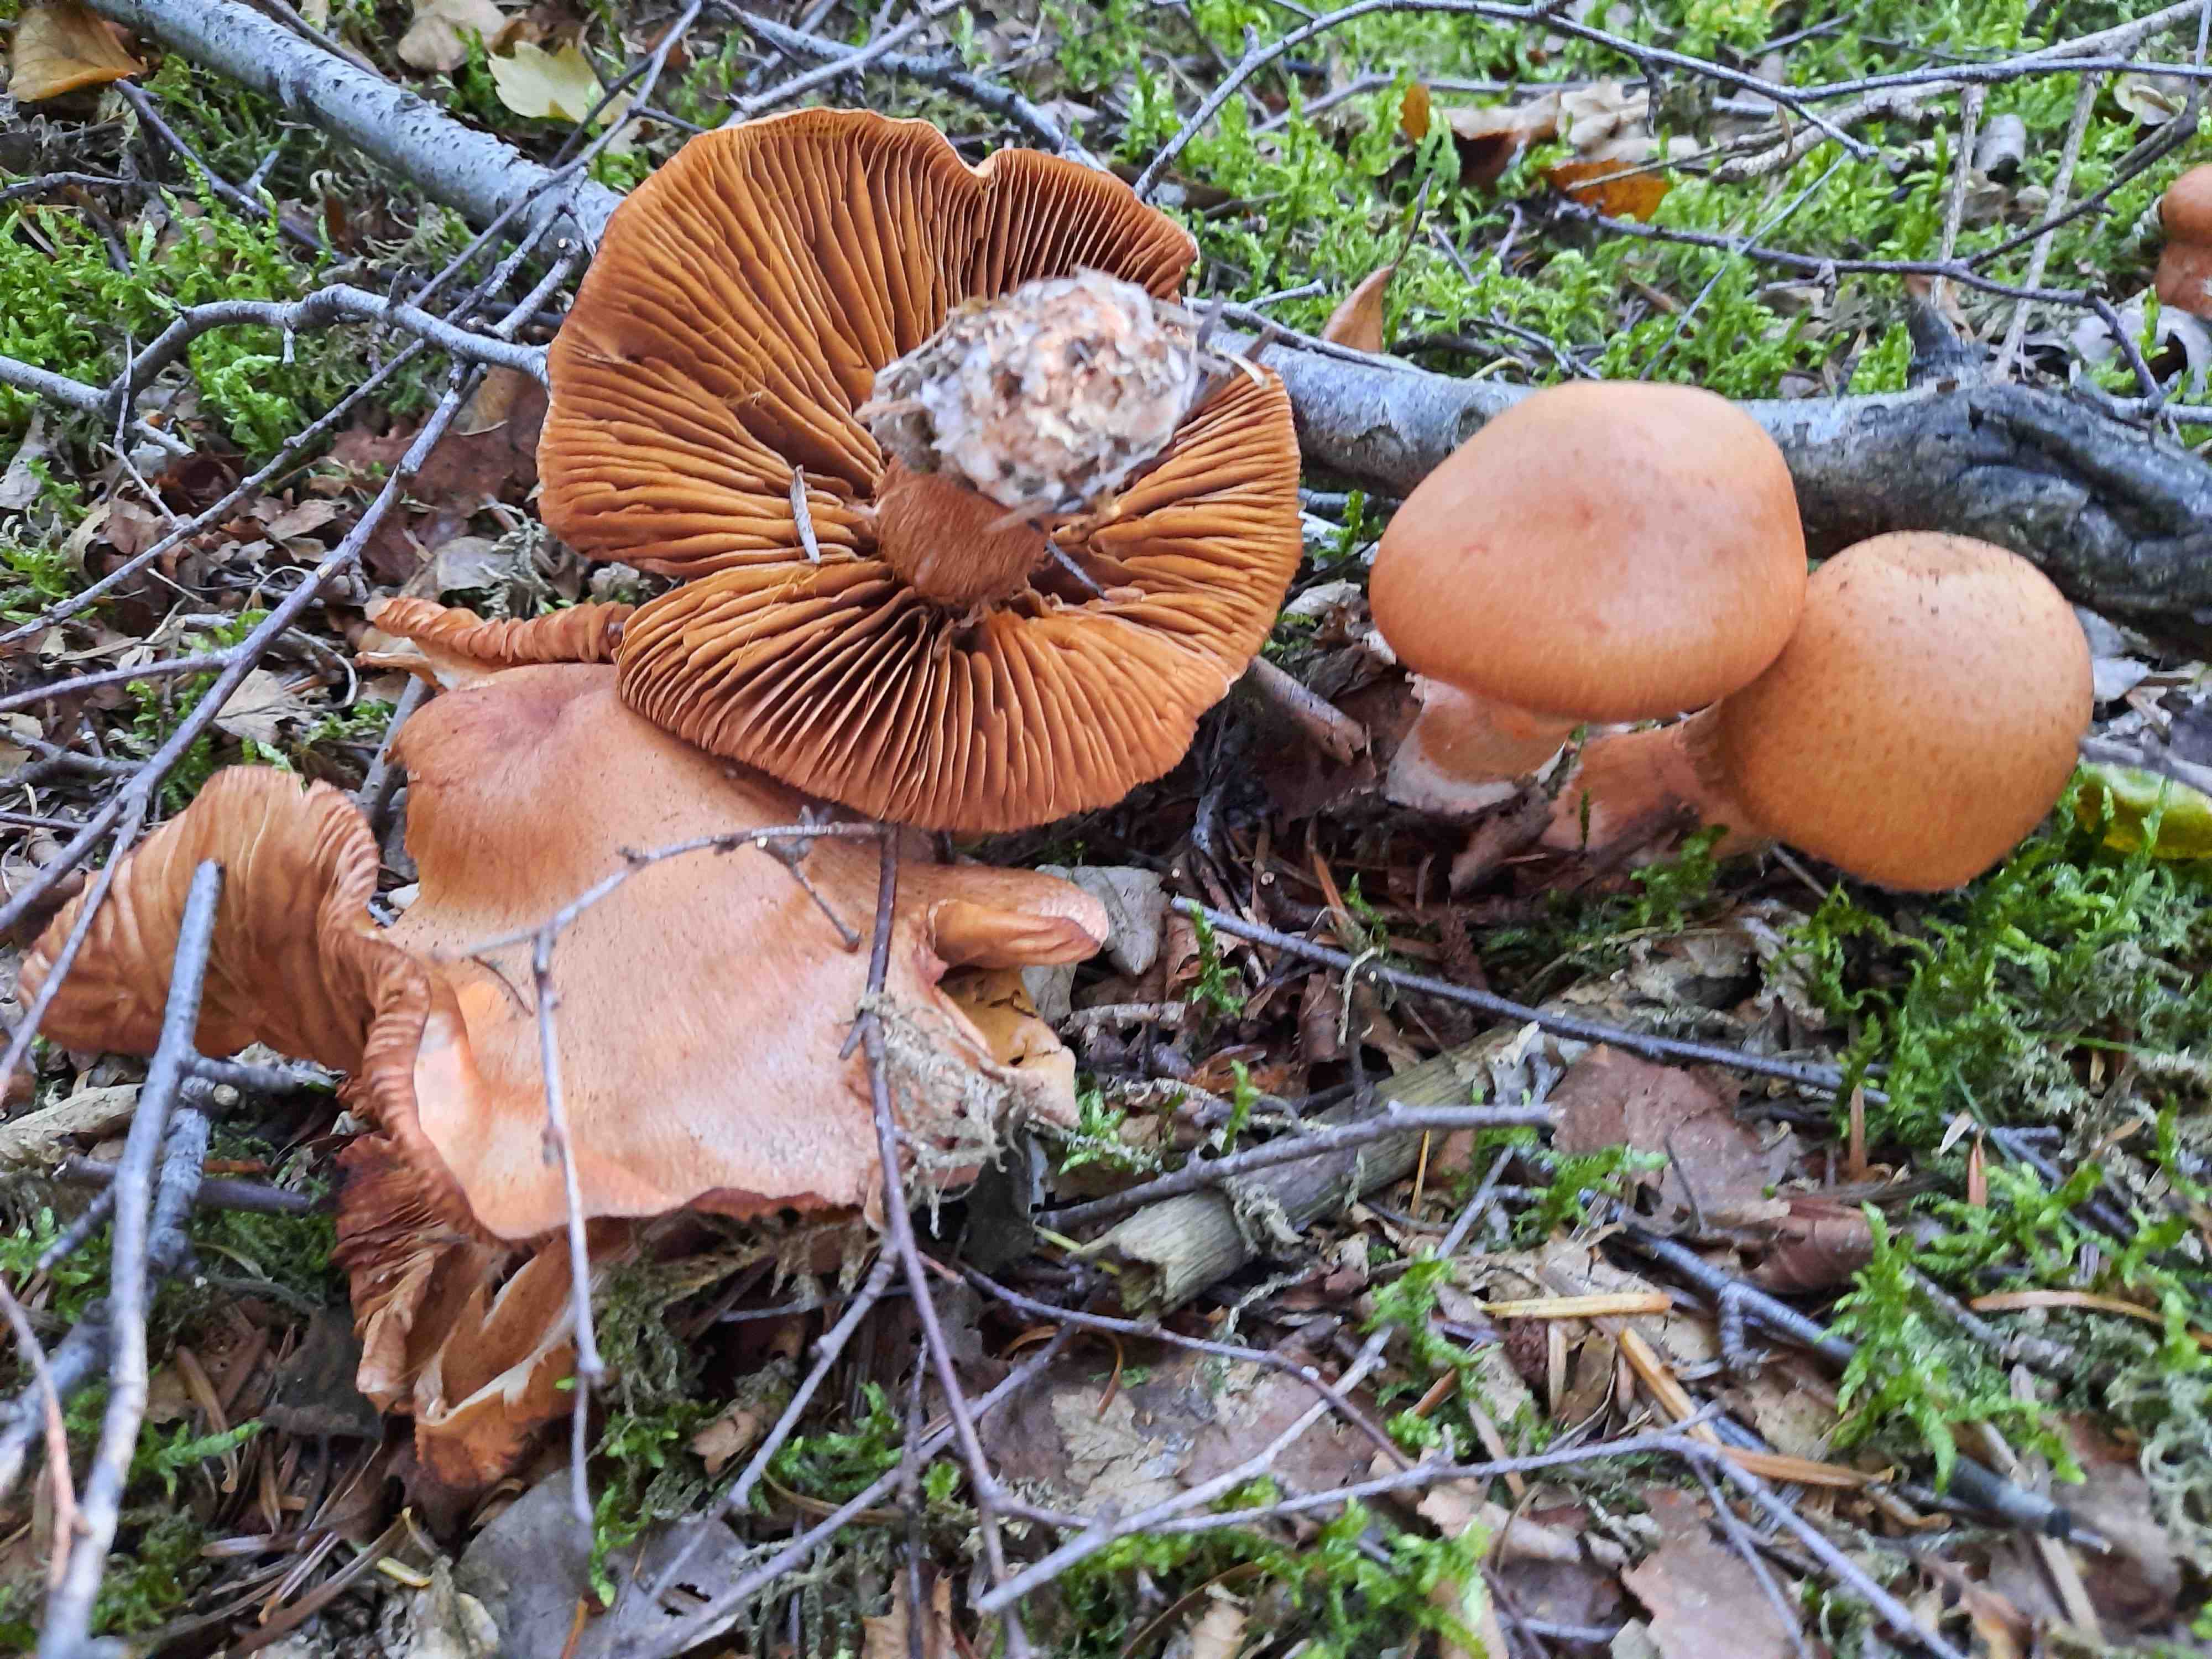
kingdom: Fungi
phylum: Basidiomycota
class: Agaricomycetes
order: Agaricales
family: Cortinariaceae
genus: Cortinarius
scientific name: Cortinarius armillatus
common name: cinnoberbæltet slørhat
